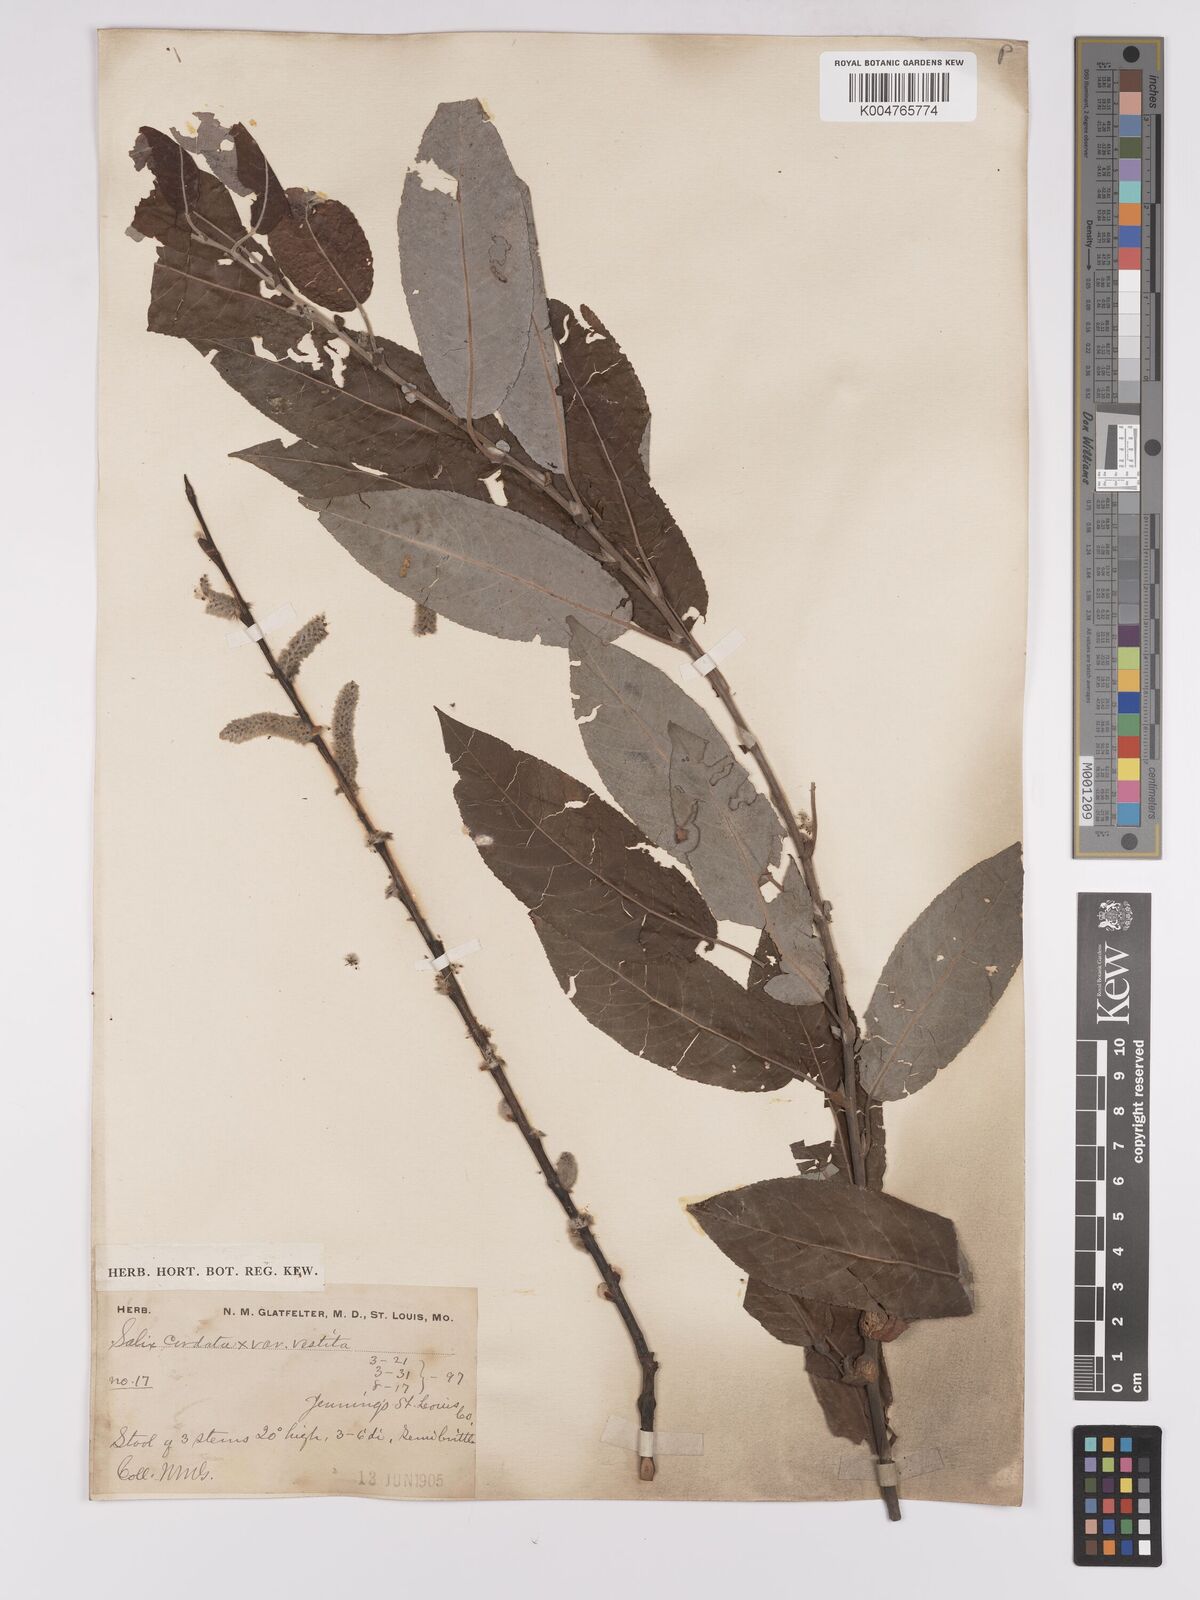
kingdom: Plantae
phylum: Tracheophyta
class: Magnoliopsida
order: Malpighiales
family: Salicaceae
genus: Salix
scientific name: Salix cordata
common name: Heart-leaf willow
